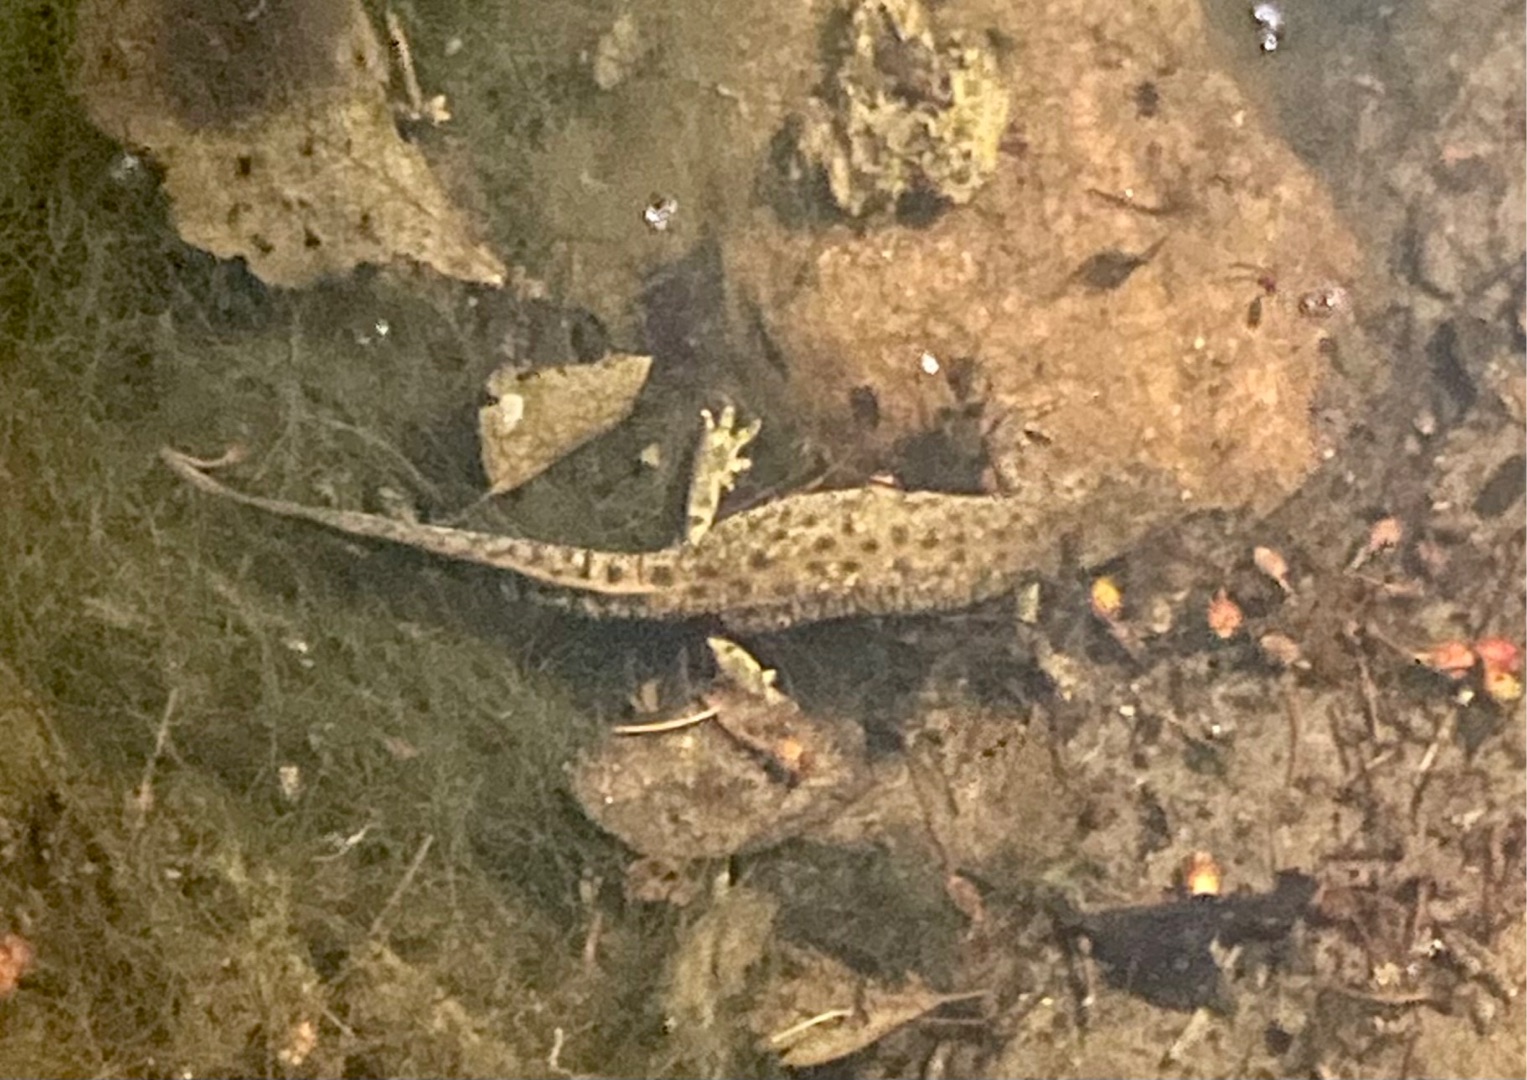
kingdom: Animalia
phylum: Chordata
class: Amphibia
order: Caudata
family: Salamandridae
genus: Triturus
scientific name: Triturus cristatus
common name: Stor vandsalamander
